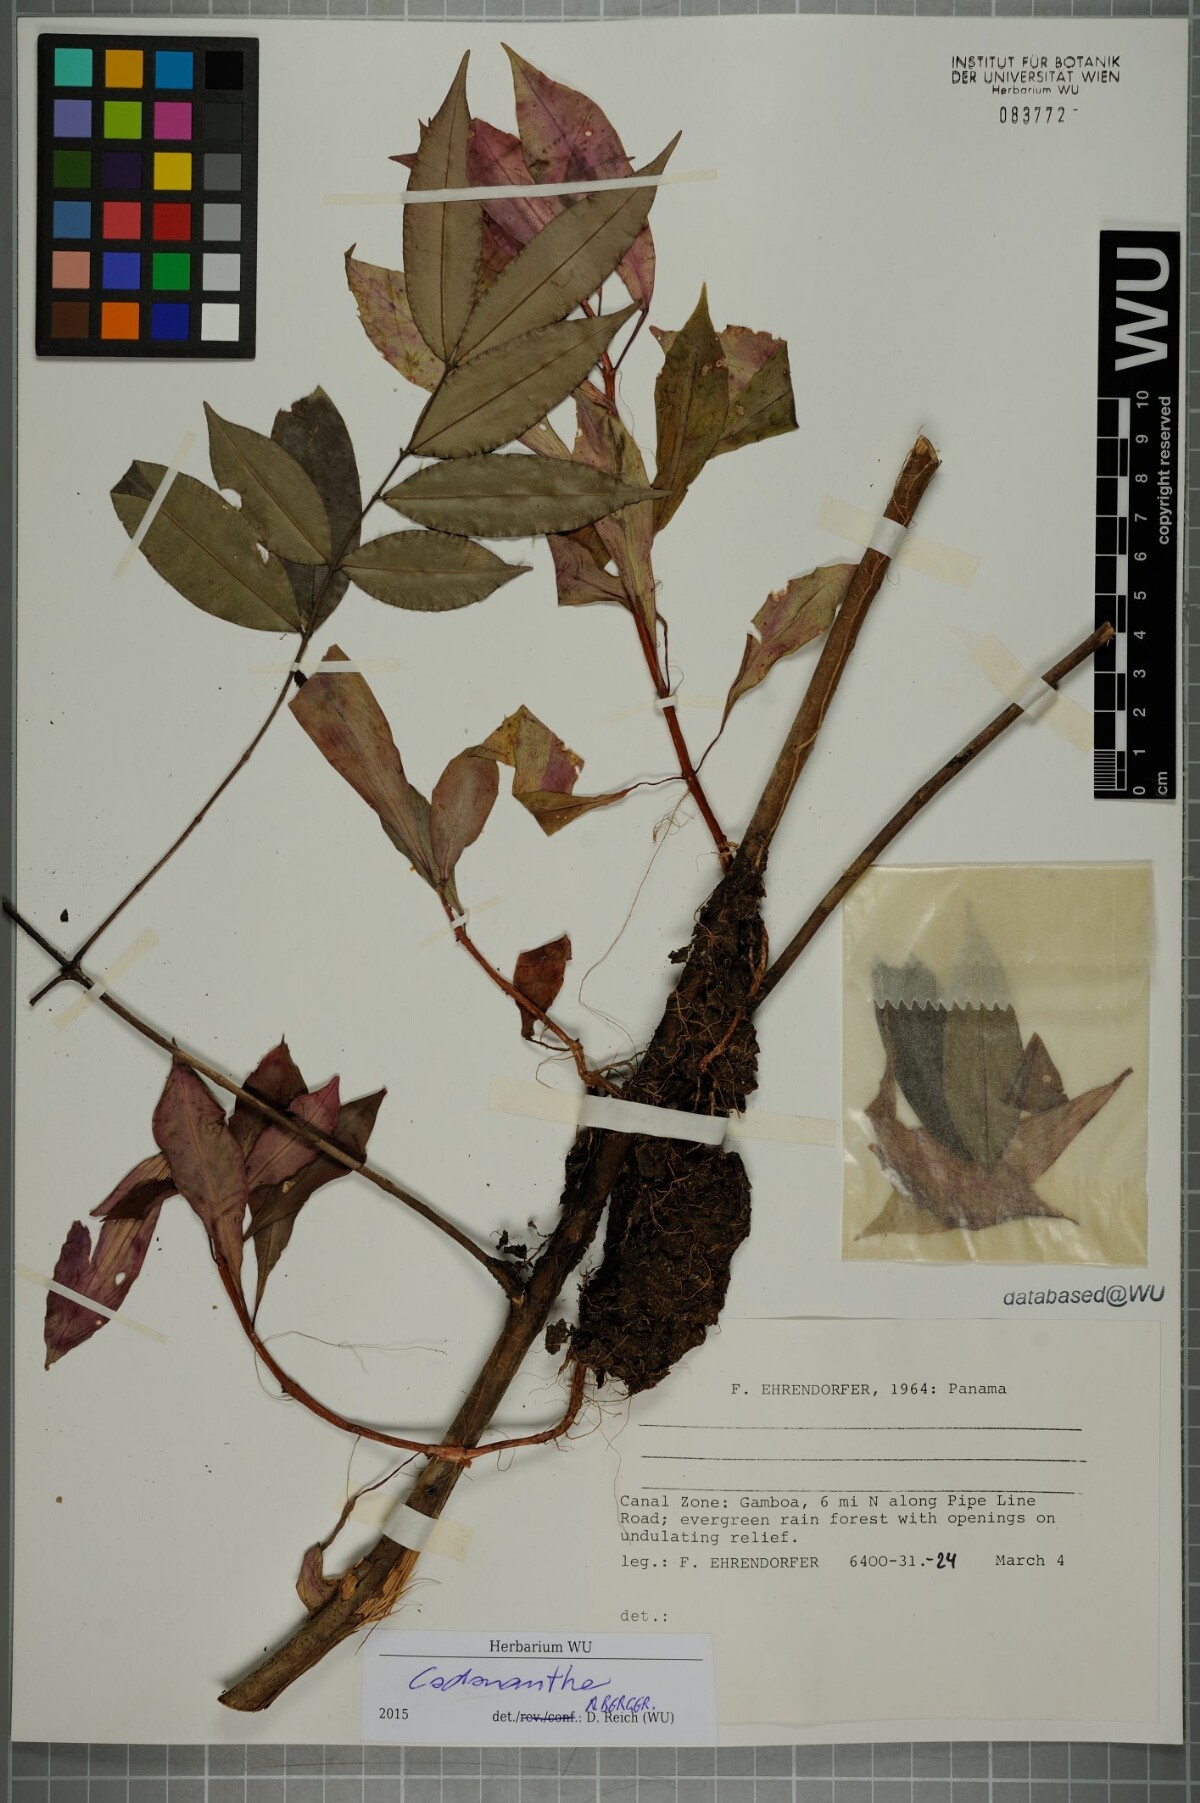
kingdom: Plantae
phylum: Tracheophyta
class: Magnoliopsida
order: Lamiales
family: Gesneriaceae
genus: Codonanthe
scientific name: Codonanthe
